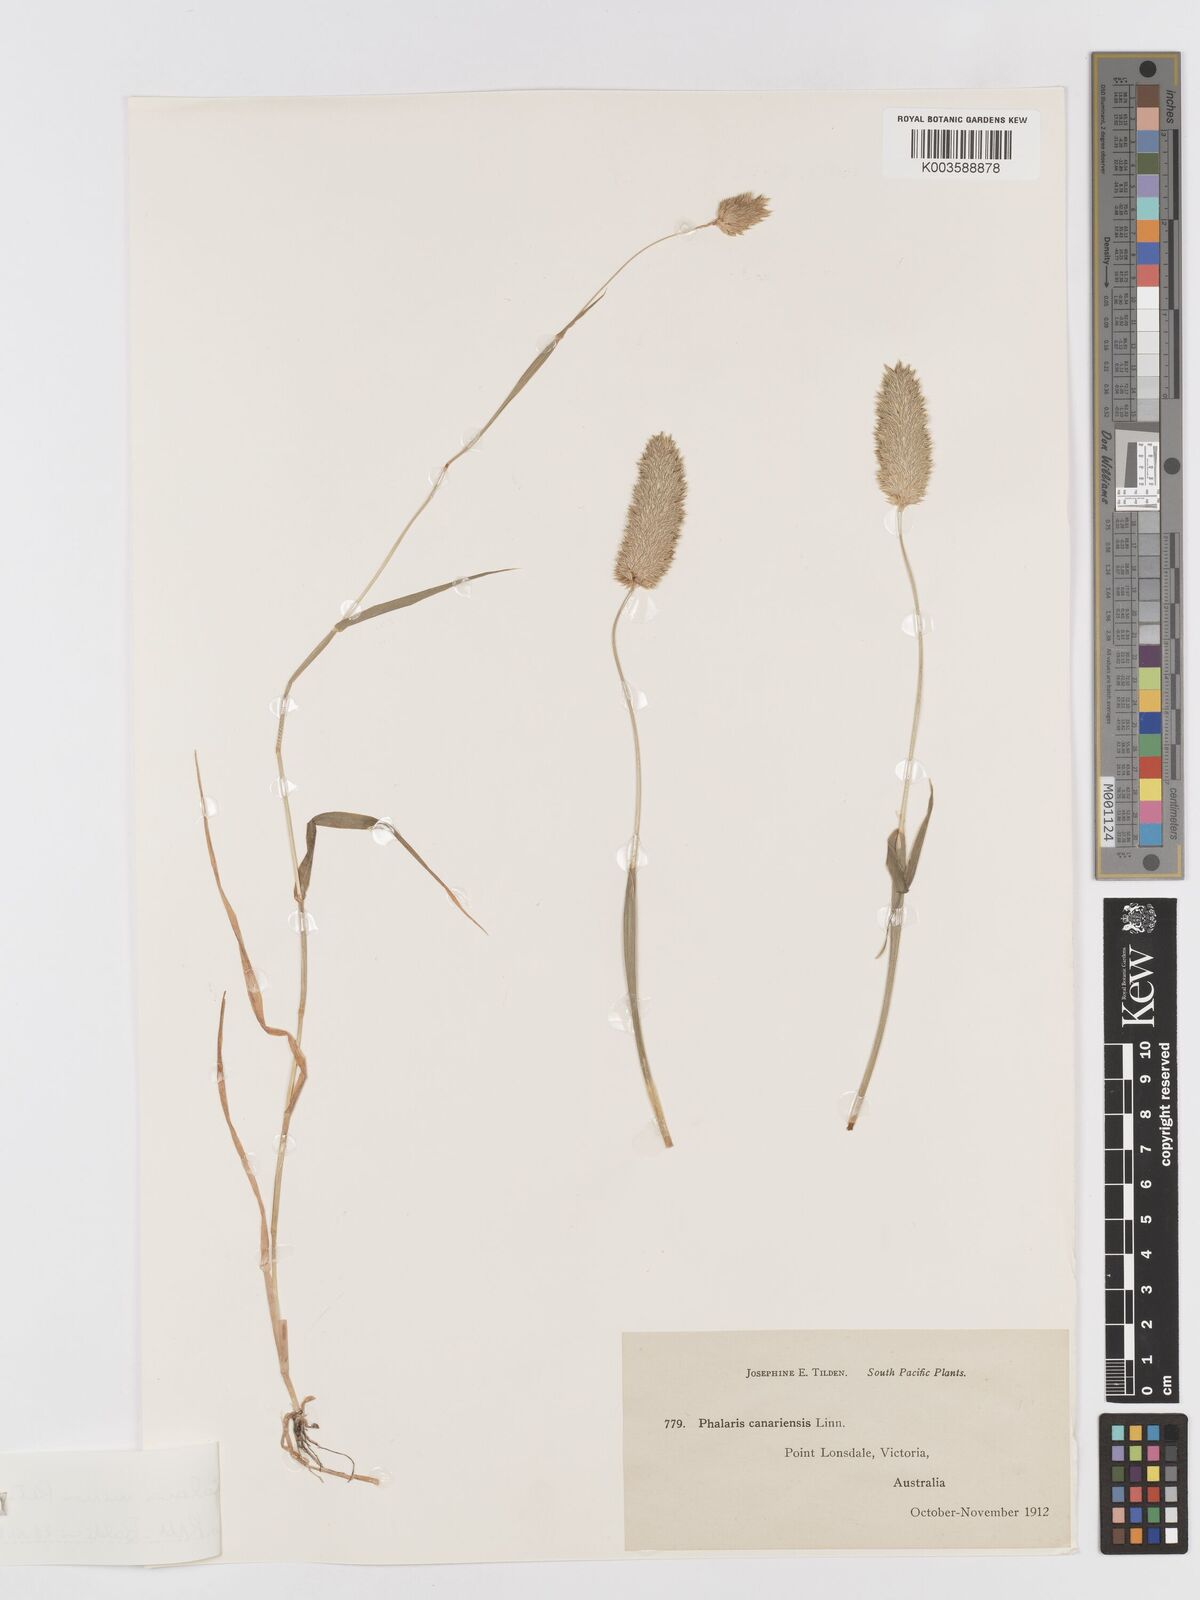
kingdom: Plantae
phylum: Tracheophyta
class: Liliopsida
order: Poales
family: Poaceae
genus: Phalaris
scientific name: Phalaris minor
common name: Littleseed canarygrass
